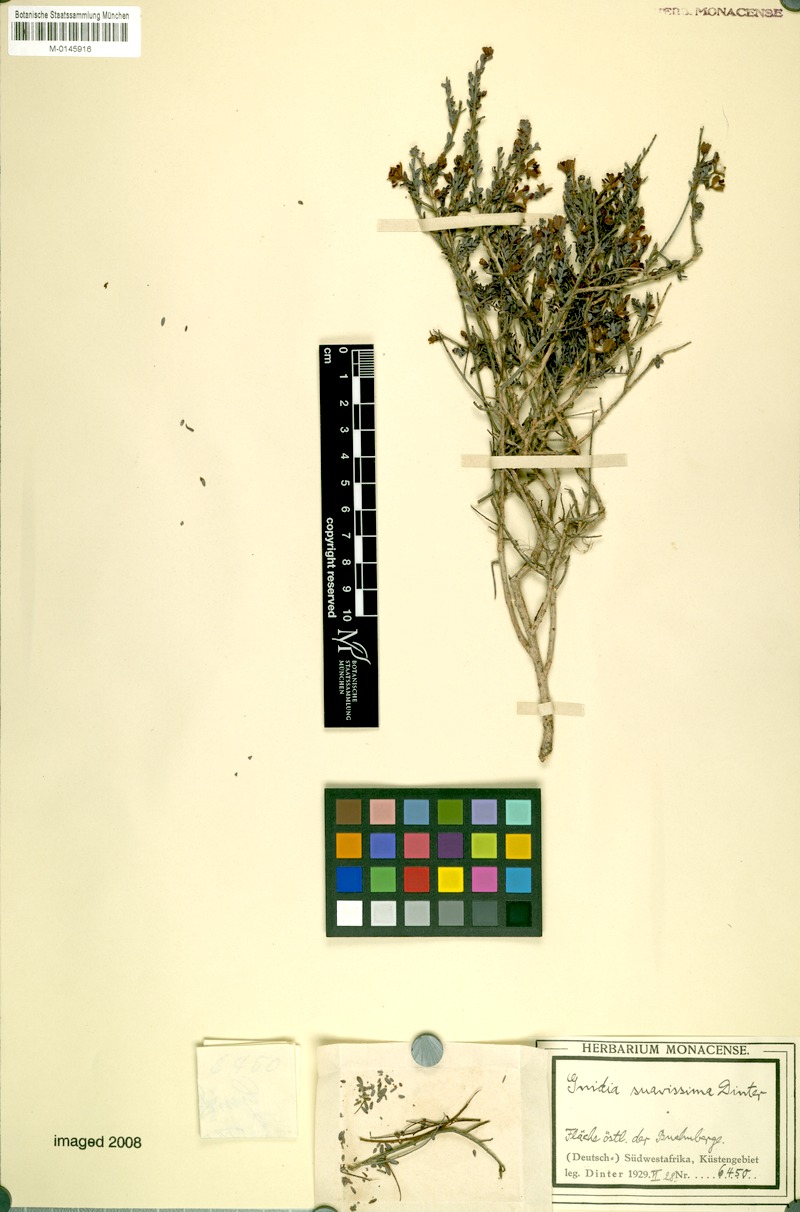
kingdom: Plantae
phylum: Tracheophyta
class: Magnoliopsida
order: Malvales
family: Thymelaeaceae
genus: Gnidia
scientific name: Gnidia suavissima
